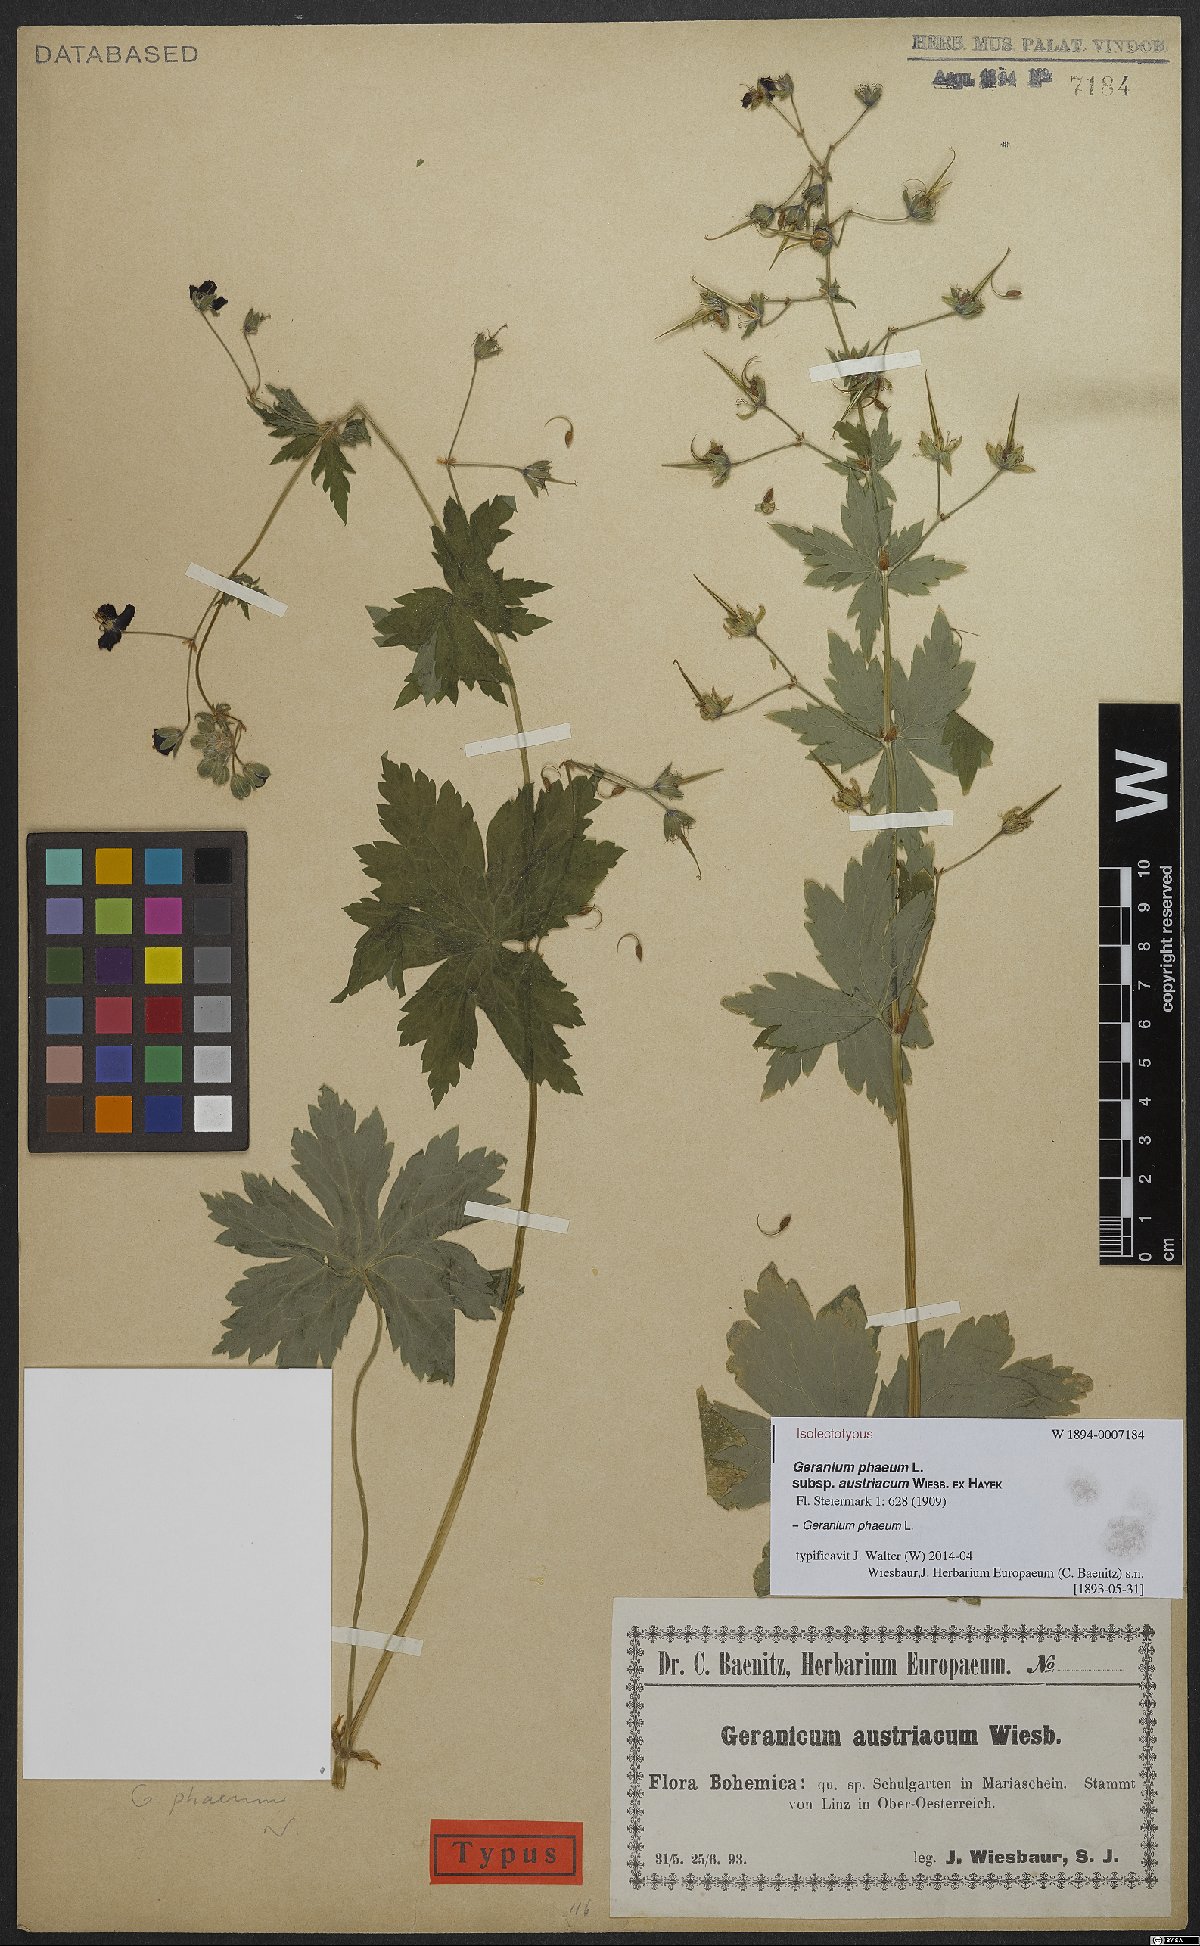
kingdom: Plantae
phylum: Tracheophyta
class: Magnoliopsida
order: Geraniales
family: Geraniaceae
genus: Geranium
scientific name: Geranium phaeum
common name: Dusky crane's-bill
